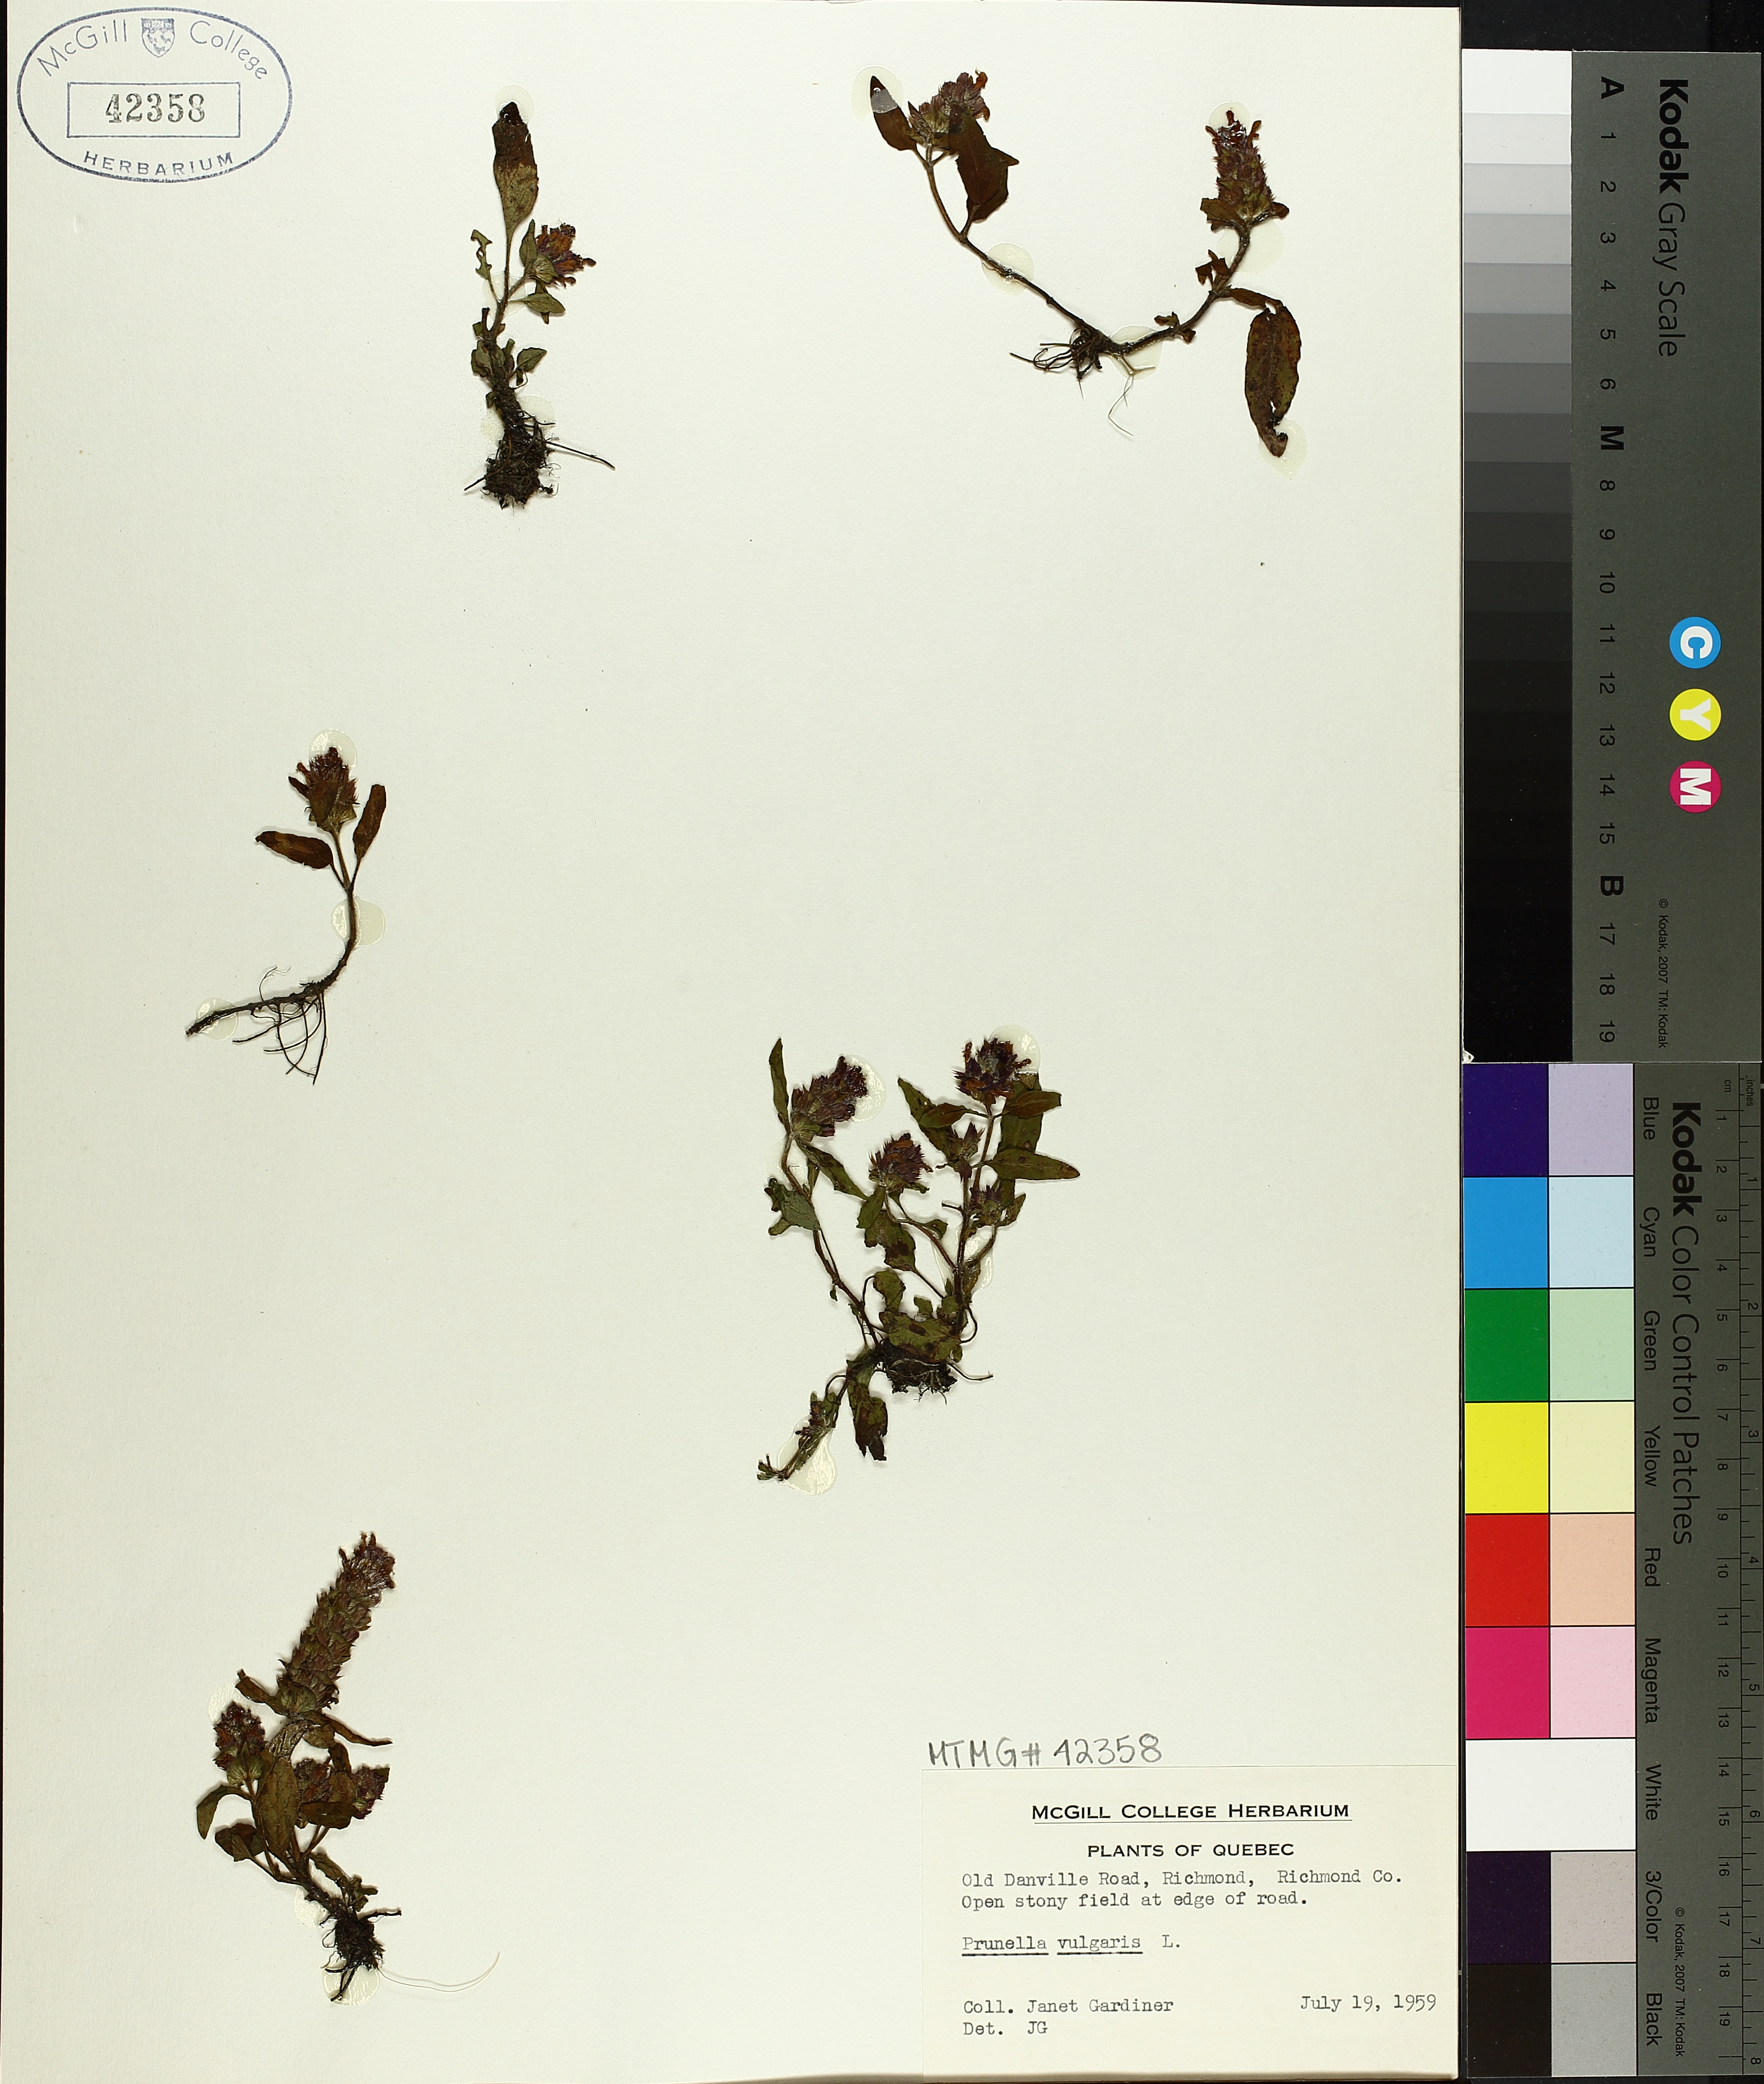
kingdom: Plantae
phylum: Tracheophyta
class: Magnoliopsida
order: Lamiales
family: Lamiaceae
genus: Prunella
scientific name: Prunella vulgaris
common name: Heal-all
